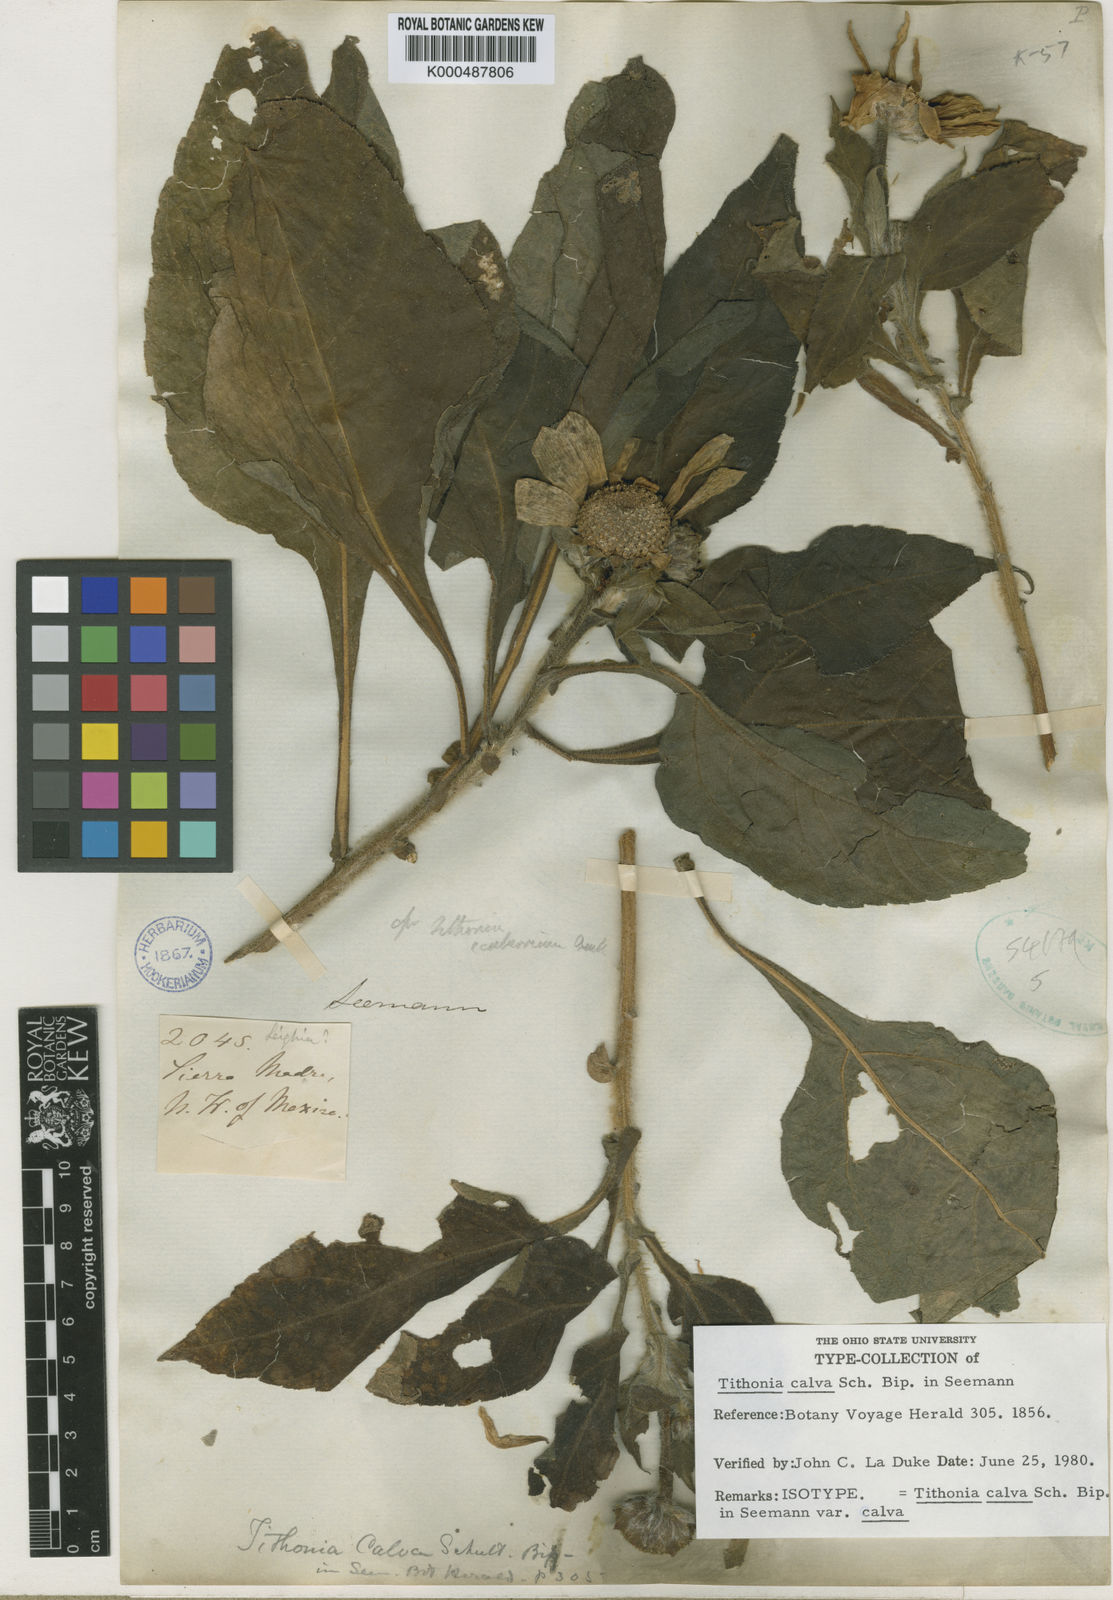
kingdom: Plantae
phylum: Tracheophyta
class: Magnoliopsida
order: Asterales
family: Asteraceae
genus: Tithonia
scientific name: Tithonia calva
